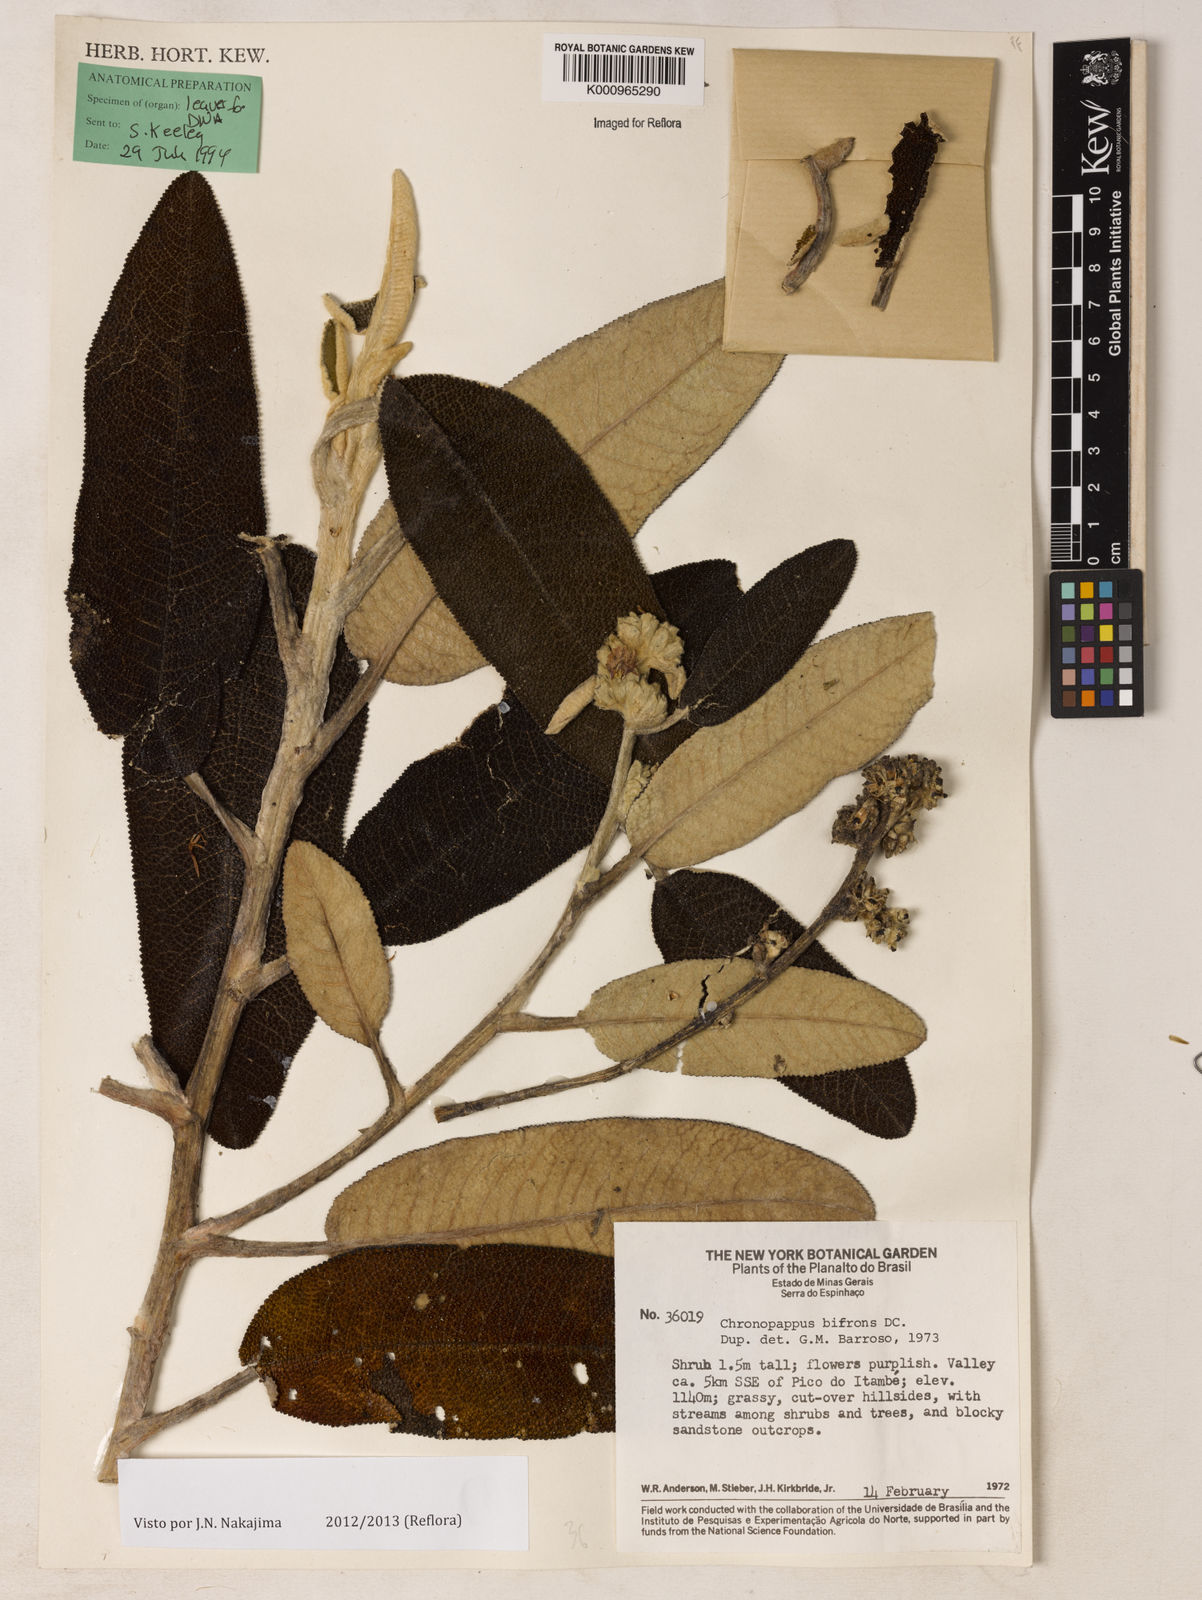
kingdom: Plantae
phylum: Tracheophyta
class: Magnoliopsida
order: Asterales
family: Asteraceae
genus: Chronopappus
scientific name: Chronopappus bifrons
